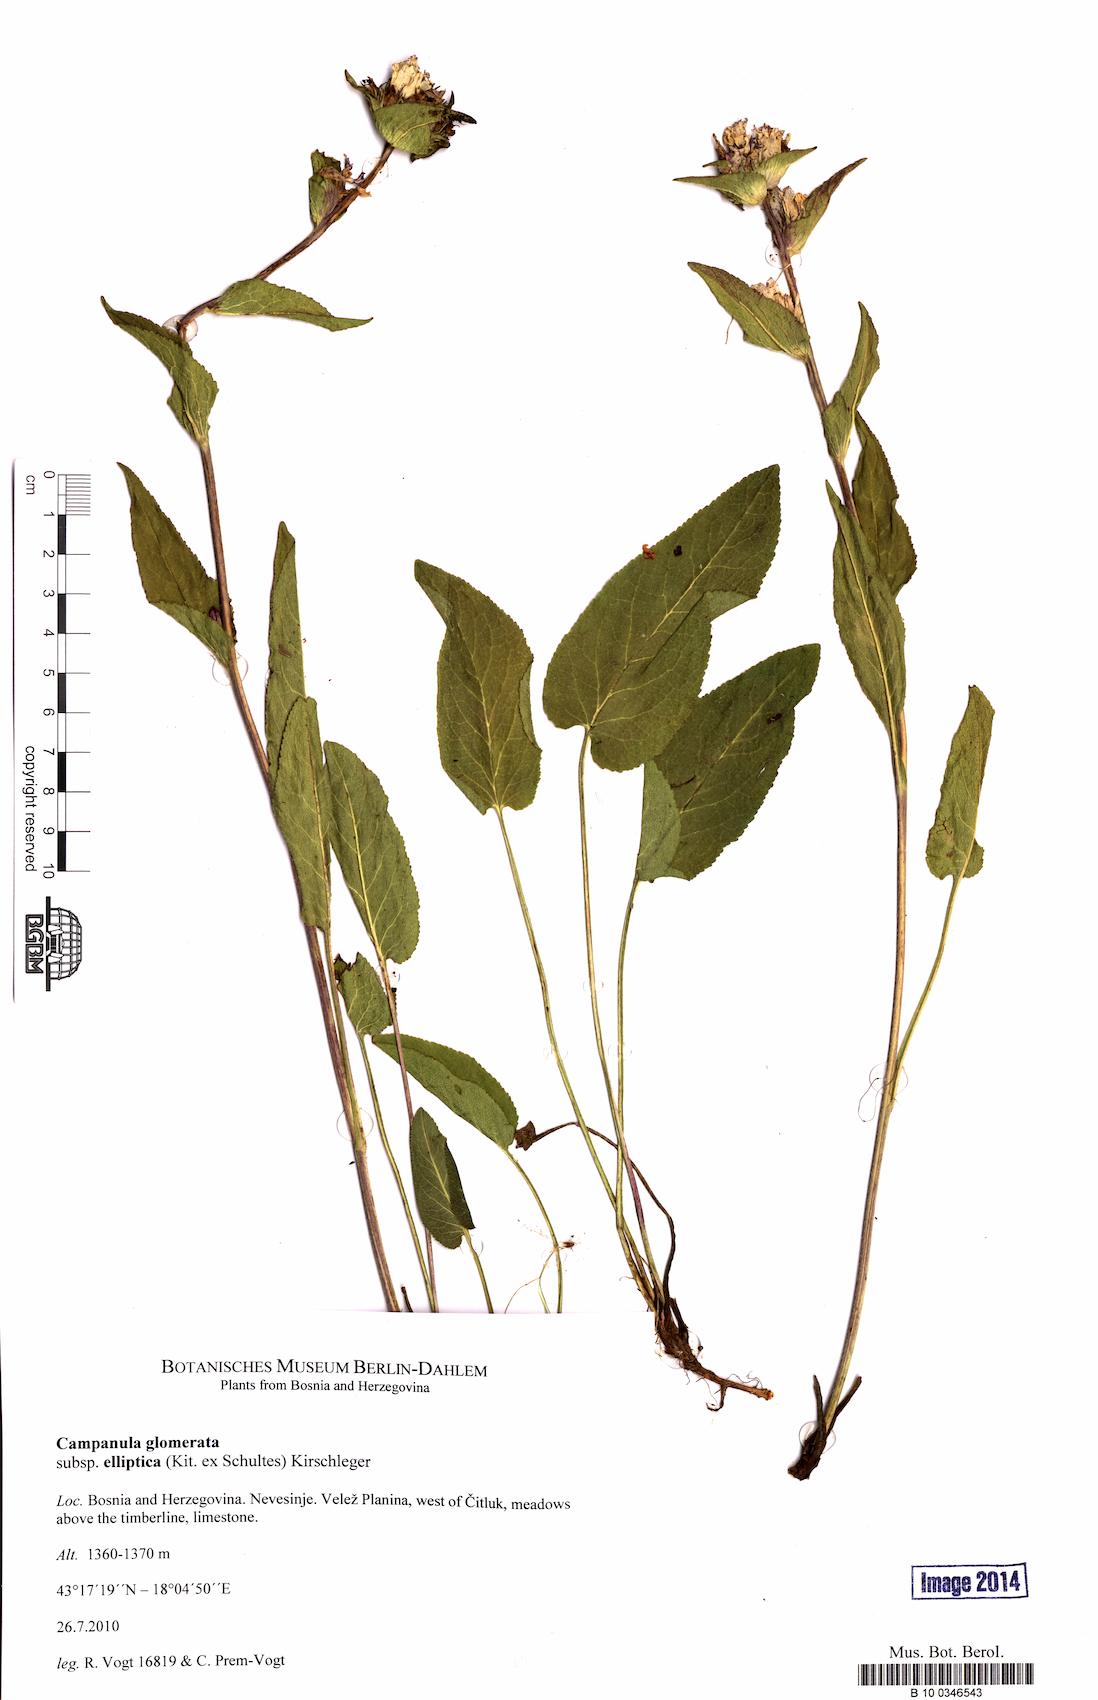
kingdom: Plantae
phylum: Tracheophyta
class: Magnoliopsida
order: Asterales
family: Campanulaceae
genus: Campanula
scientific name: Campanula glomerata
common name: Clustered bellflower
